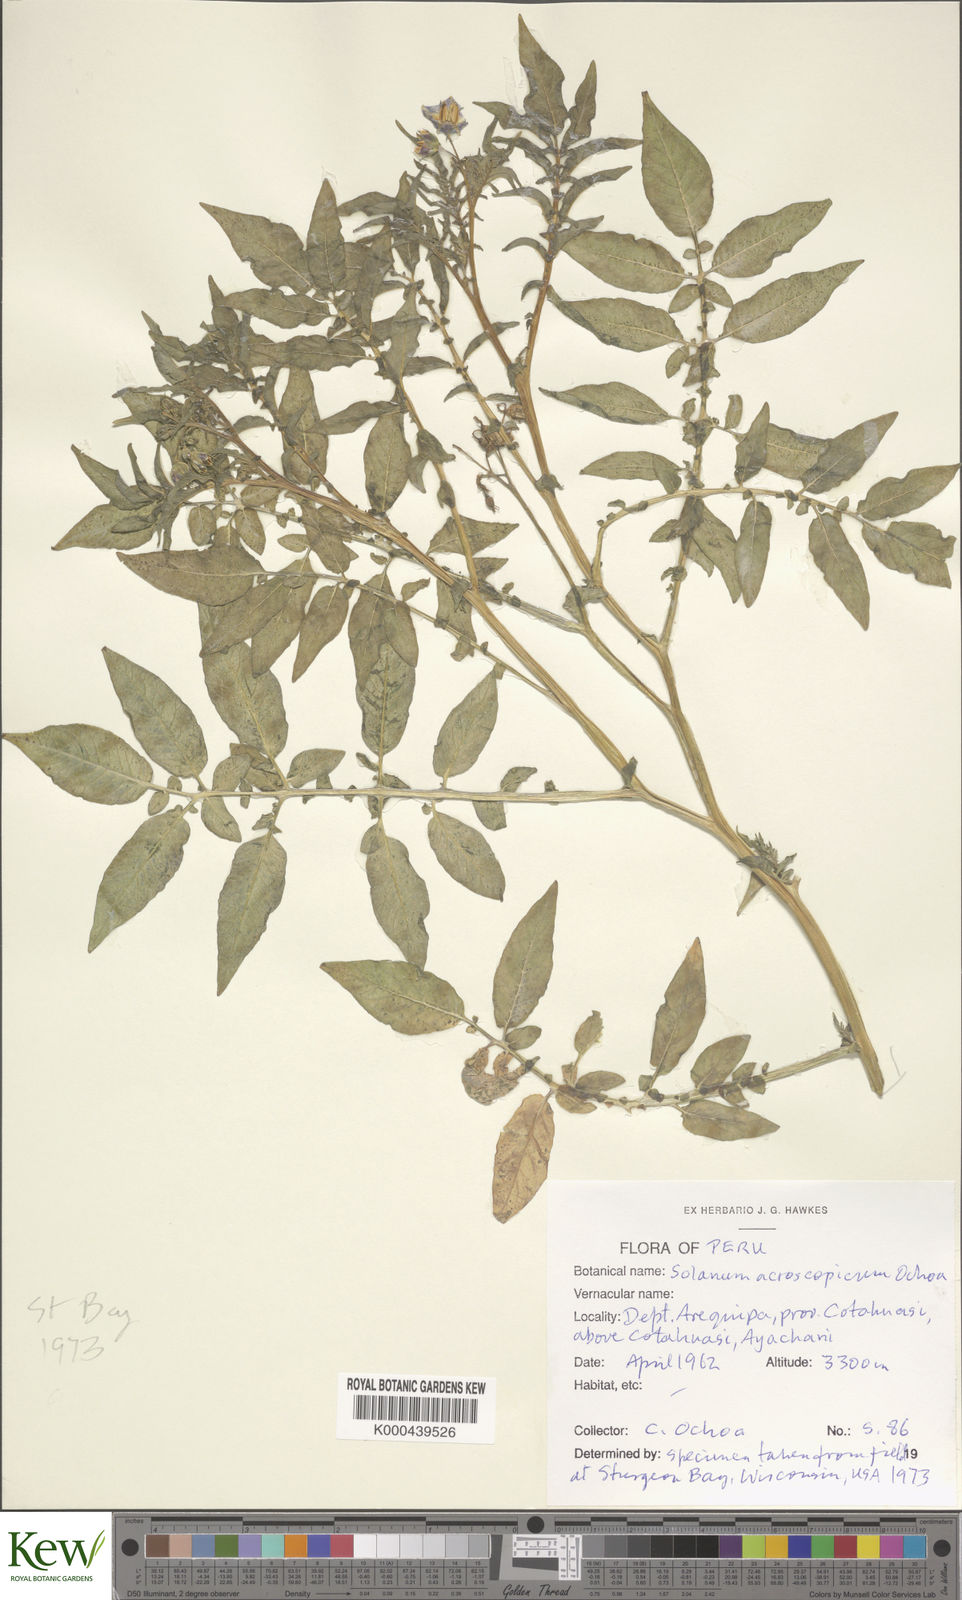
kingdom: Plantae
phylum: Tracheophyta
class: Magnoliopsida
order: Solanales
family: Solanaceae
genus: Solanum
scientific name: Solanum acroscopicum
